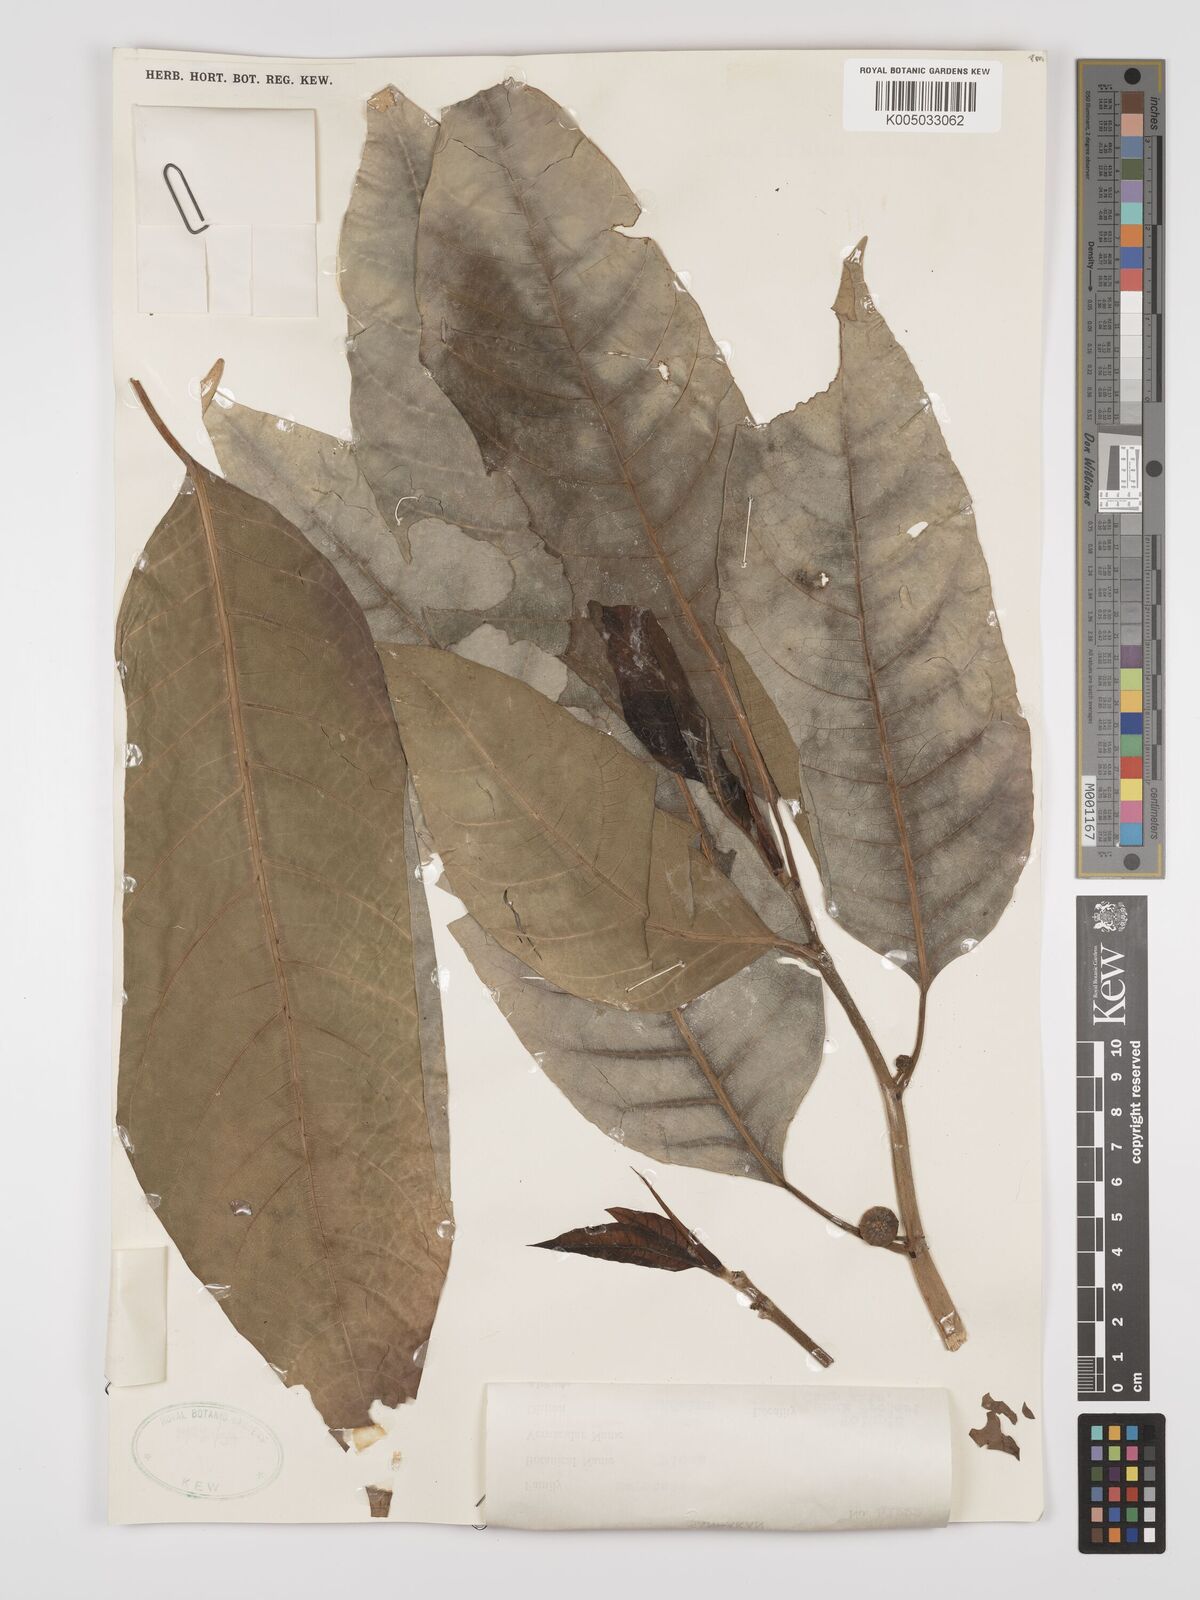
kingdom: Plantae
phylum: Tracheophyta
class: Magnoliopsida
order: Rosales
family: Moraceae
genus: Ficus
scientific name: Ficus septica
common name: Septic fig
